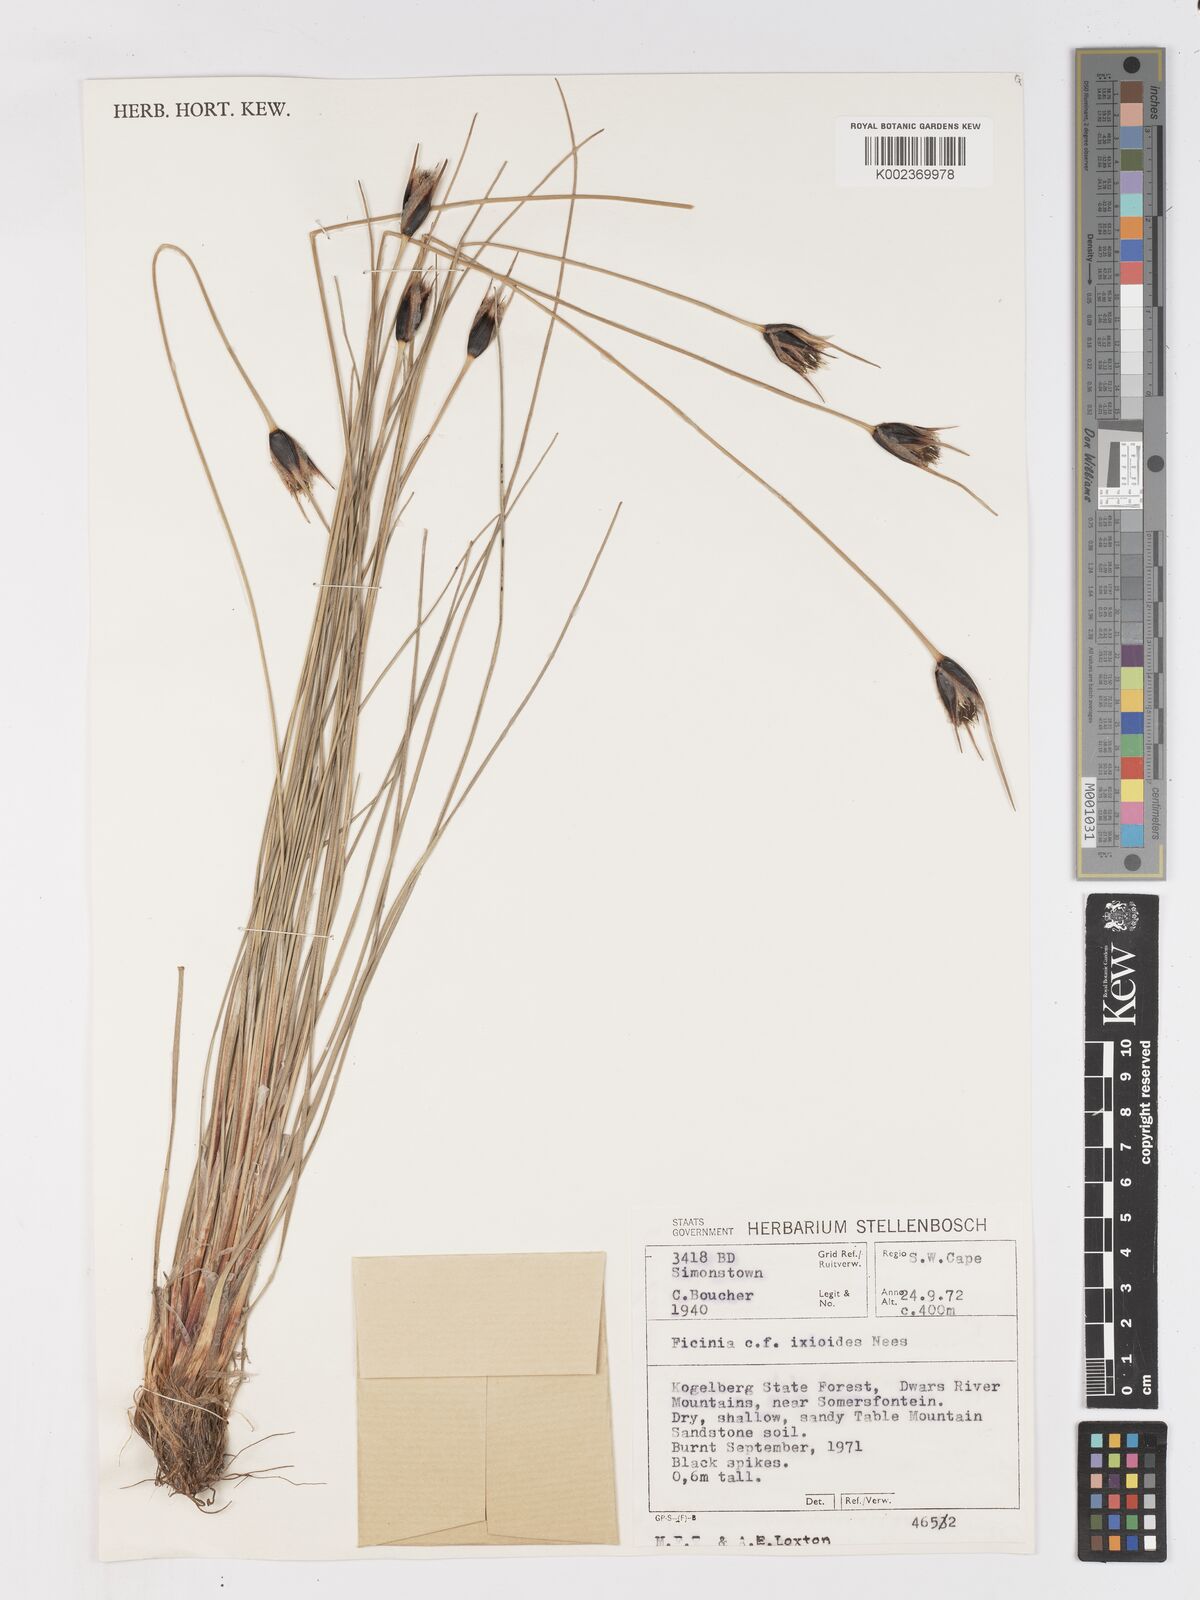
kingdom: Plantae
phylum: Tracheophyta
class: Liliopsida
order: Poales
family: Cyperaceae
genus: Ficinia
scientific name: Ficinia ixioides
